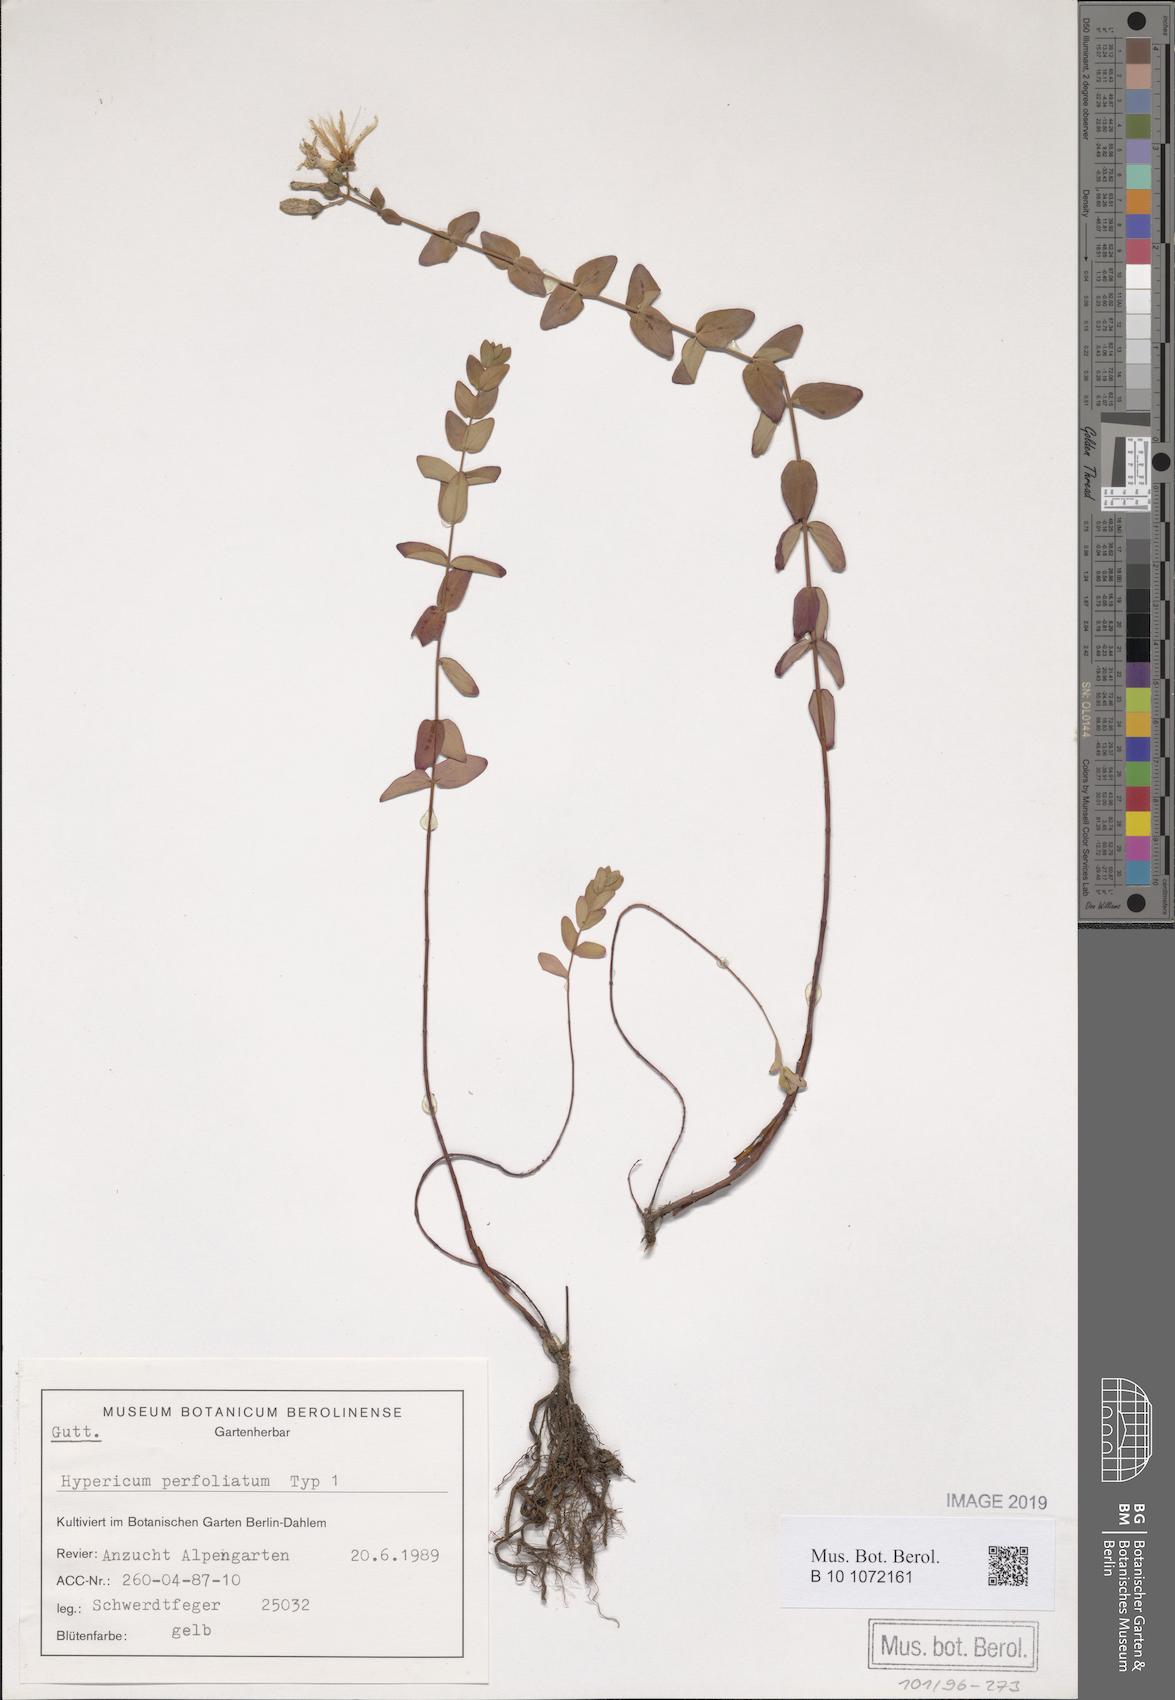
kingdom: Plantae
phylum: Tracheophyta
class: Magnoliopsida
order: Malpighiales
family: Hypericaceae
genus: Hypericum
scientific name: Hypericum vesiculosum
